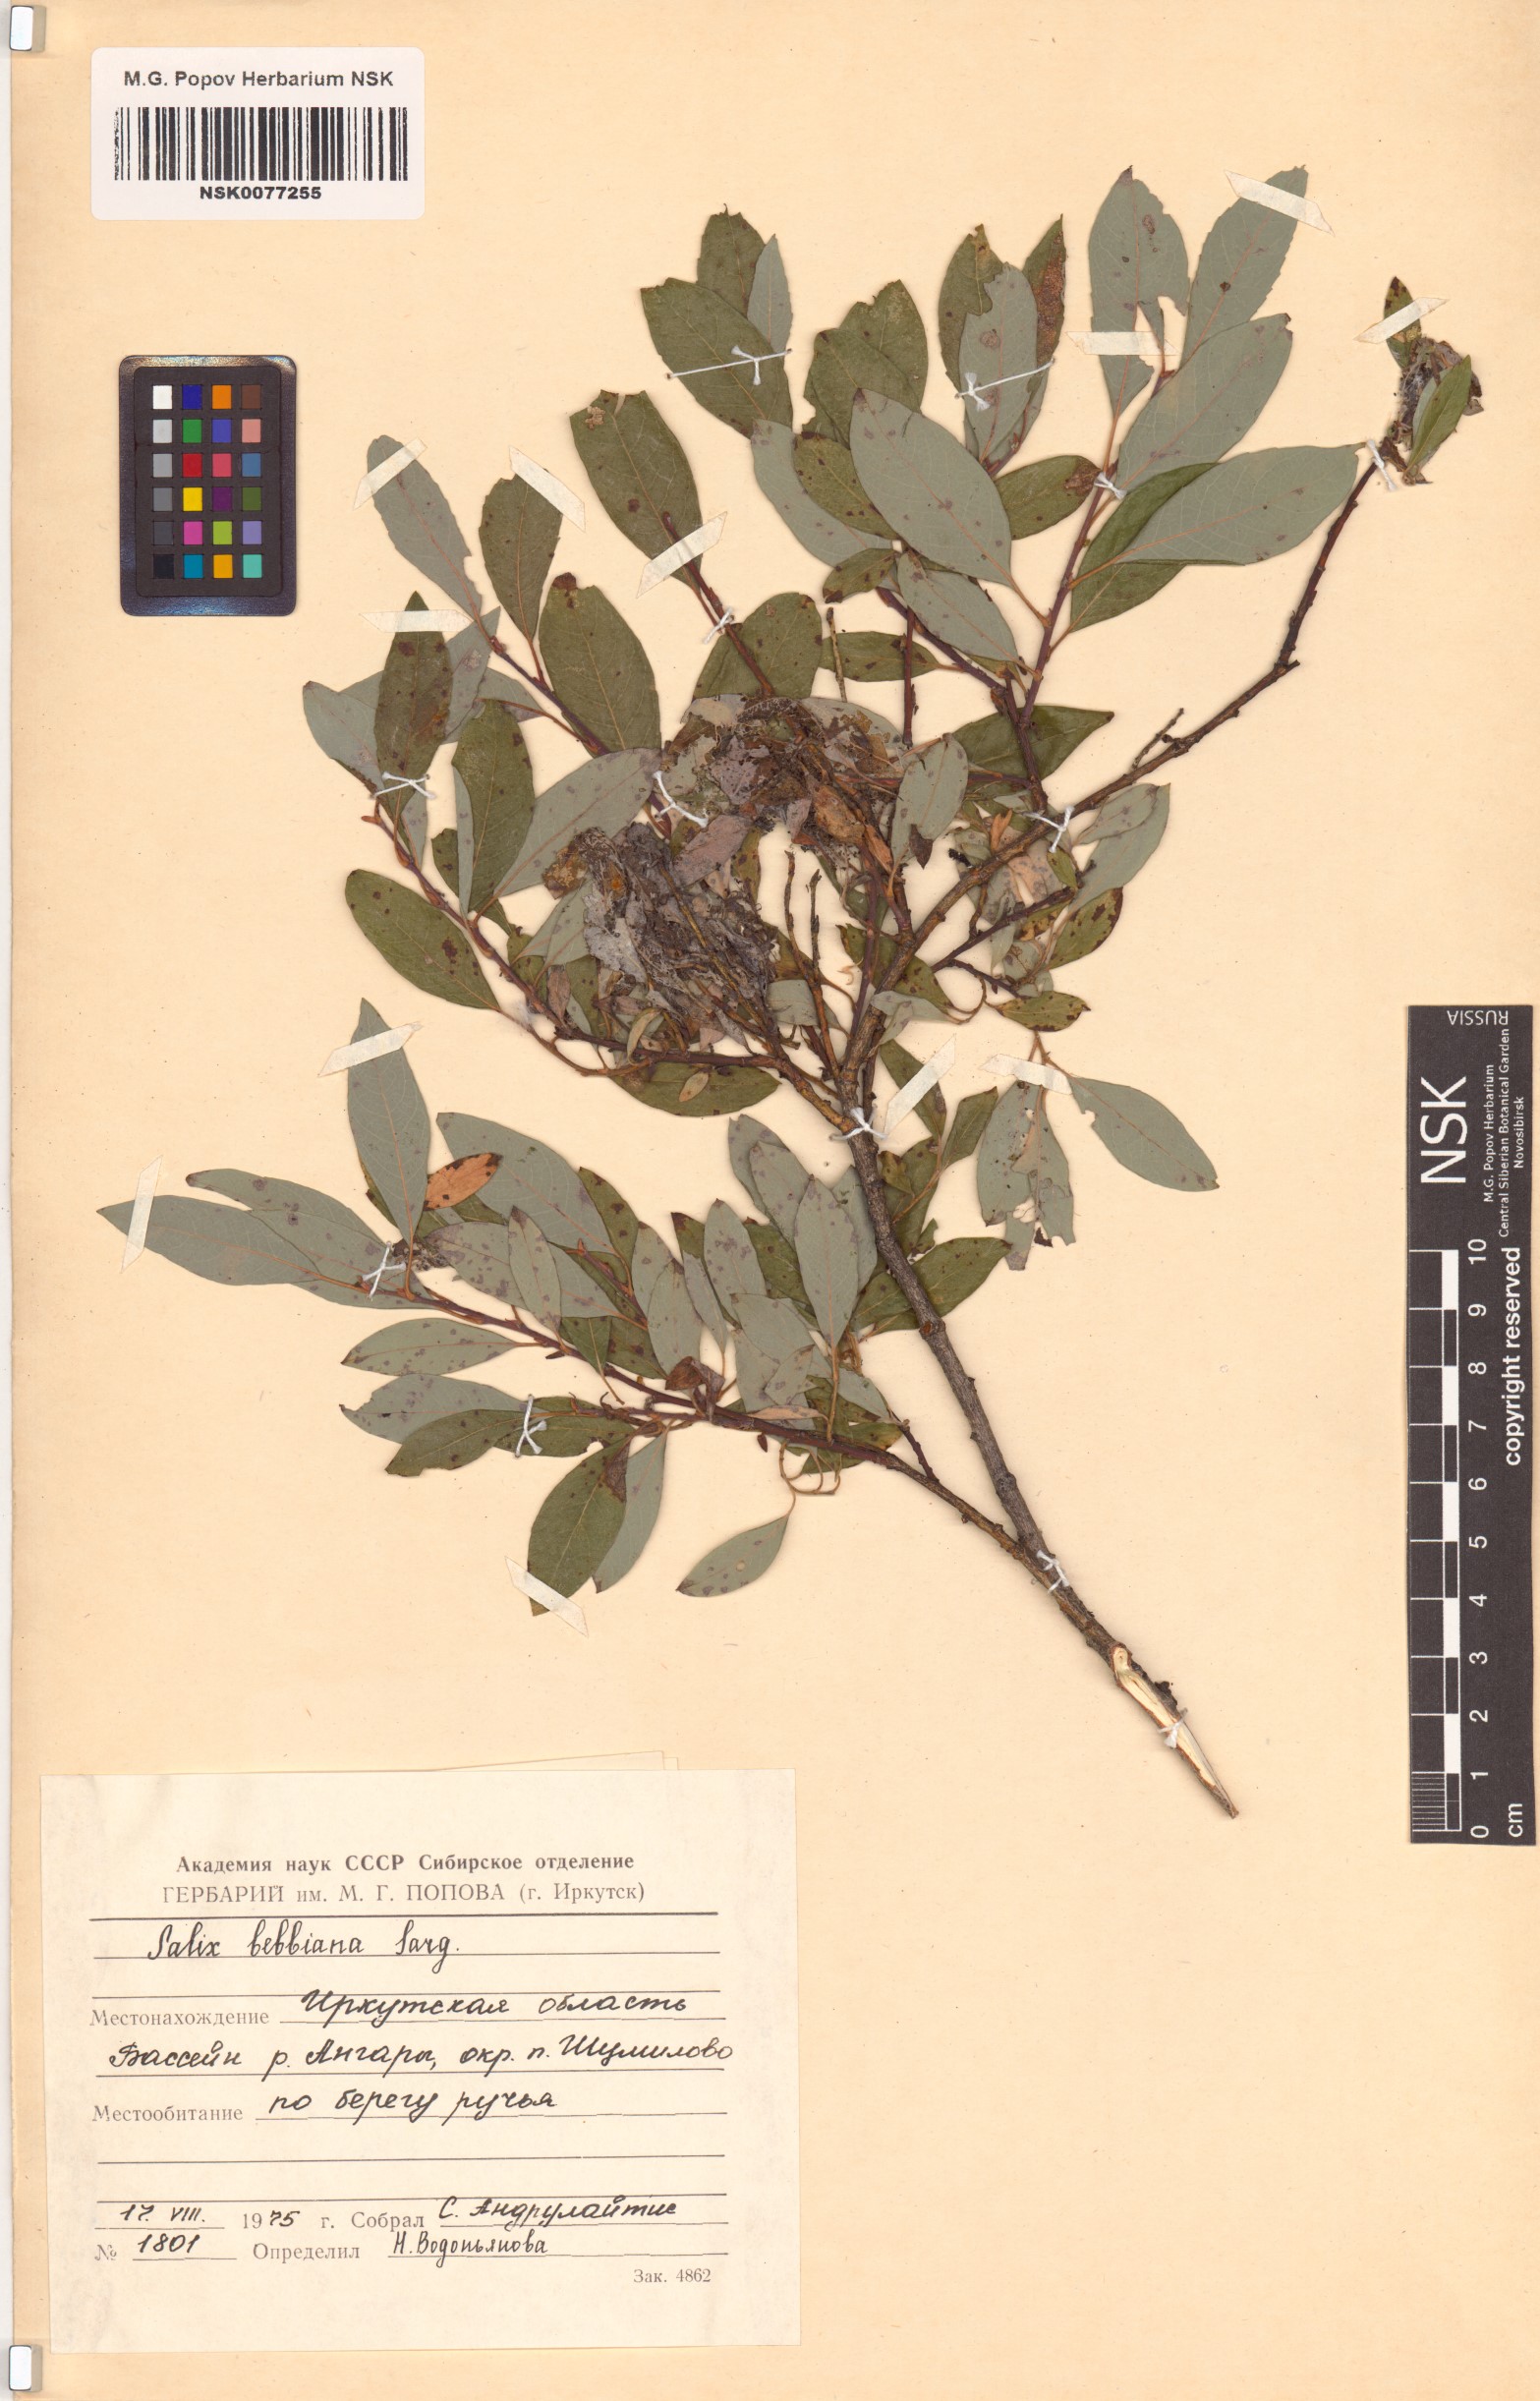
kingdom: Plantae
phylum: Tracheophyta
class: Magnoliopsida
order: Malpighiales
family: Salicaceae
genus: Salix
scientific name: Salix bebbiana
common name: Bebb's willow
